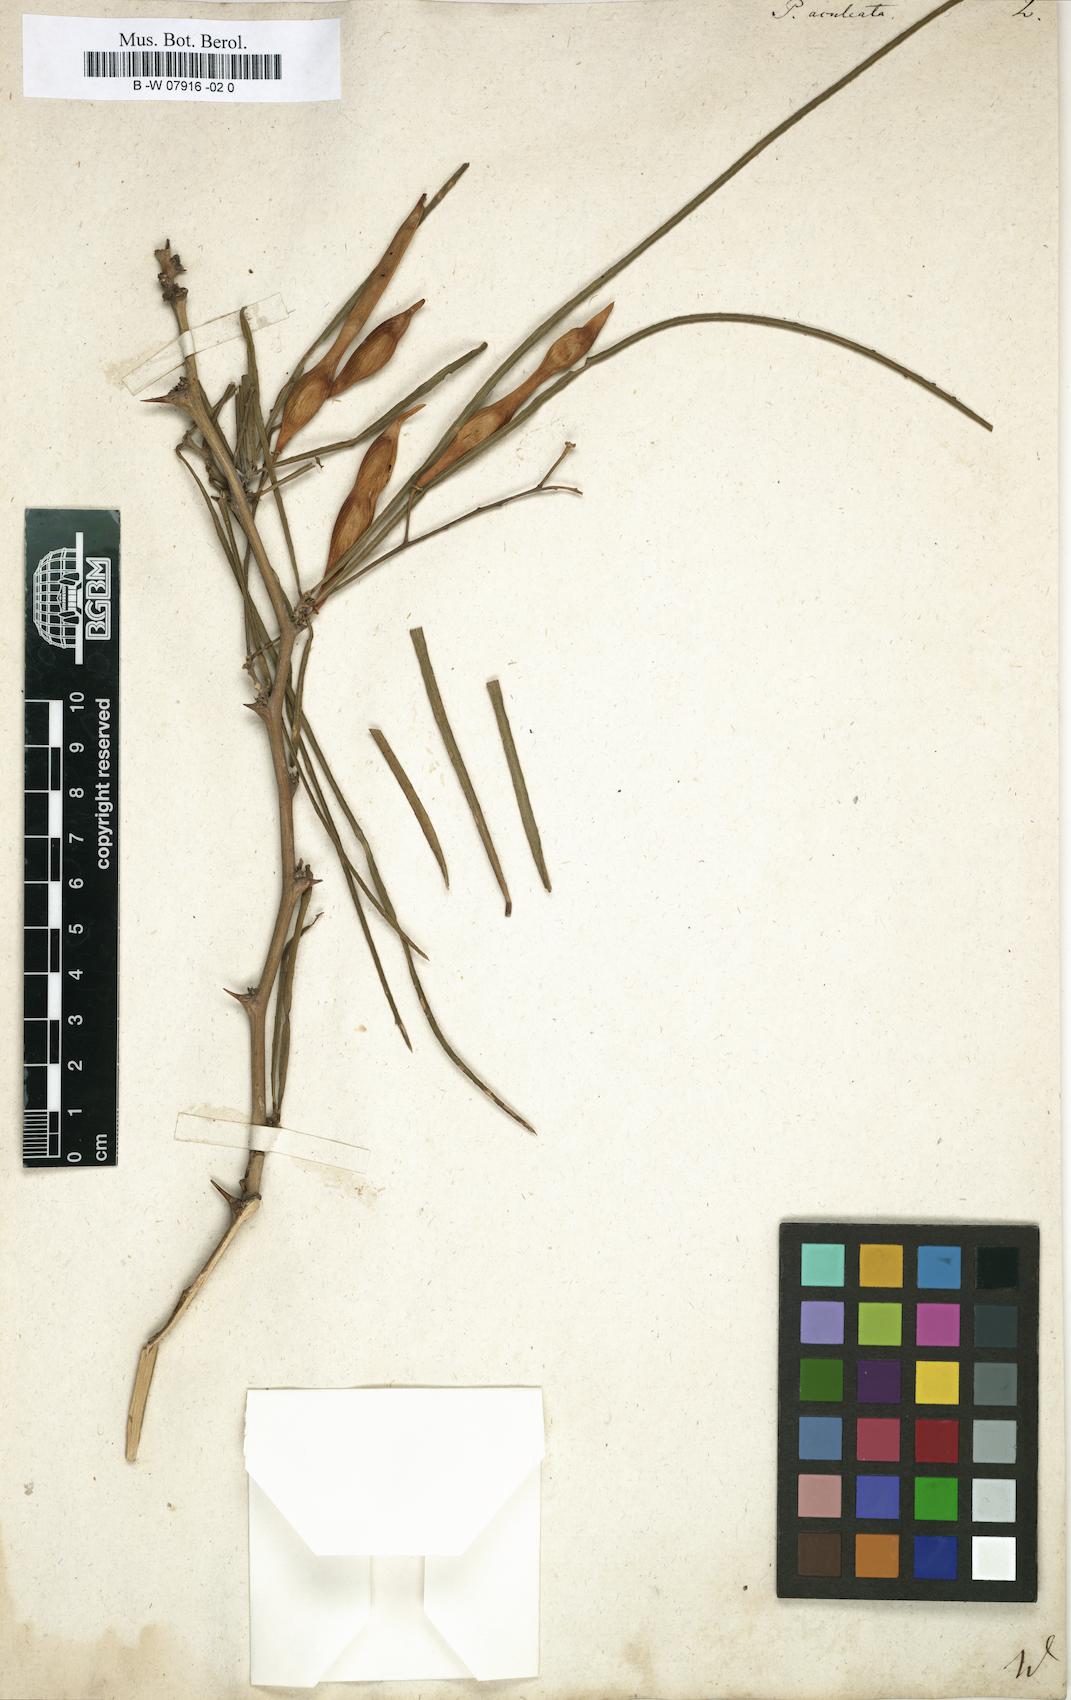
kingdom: Plantae
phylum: Tracheophyta
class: Magnoliopsida
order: Fabales
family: Fabaceae
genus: Parkinsonia
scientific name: Parkinsonia aculeata
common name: Jerusalem thorn
